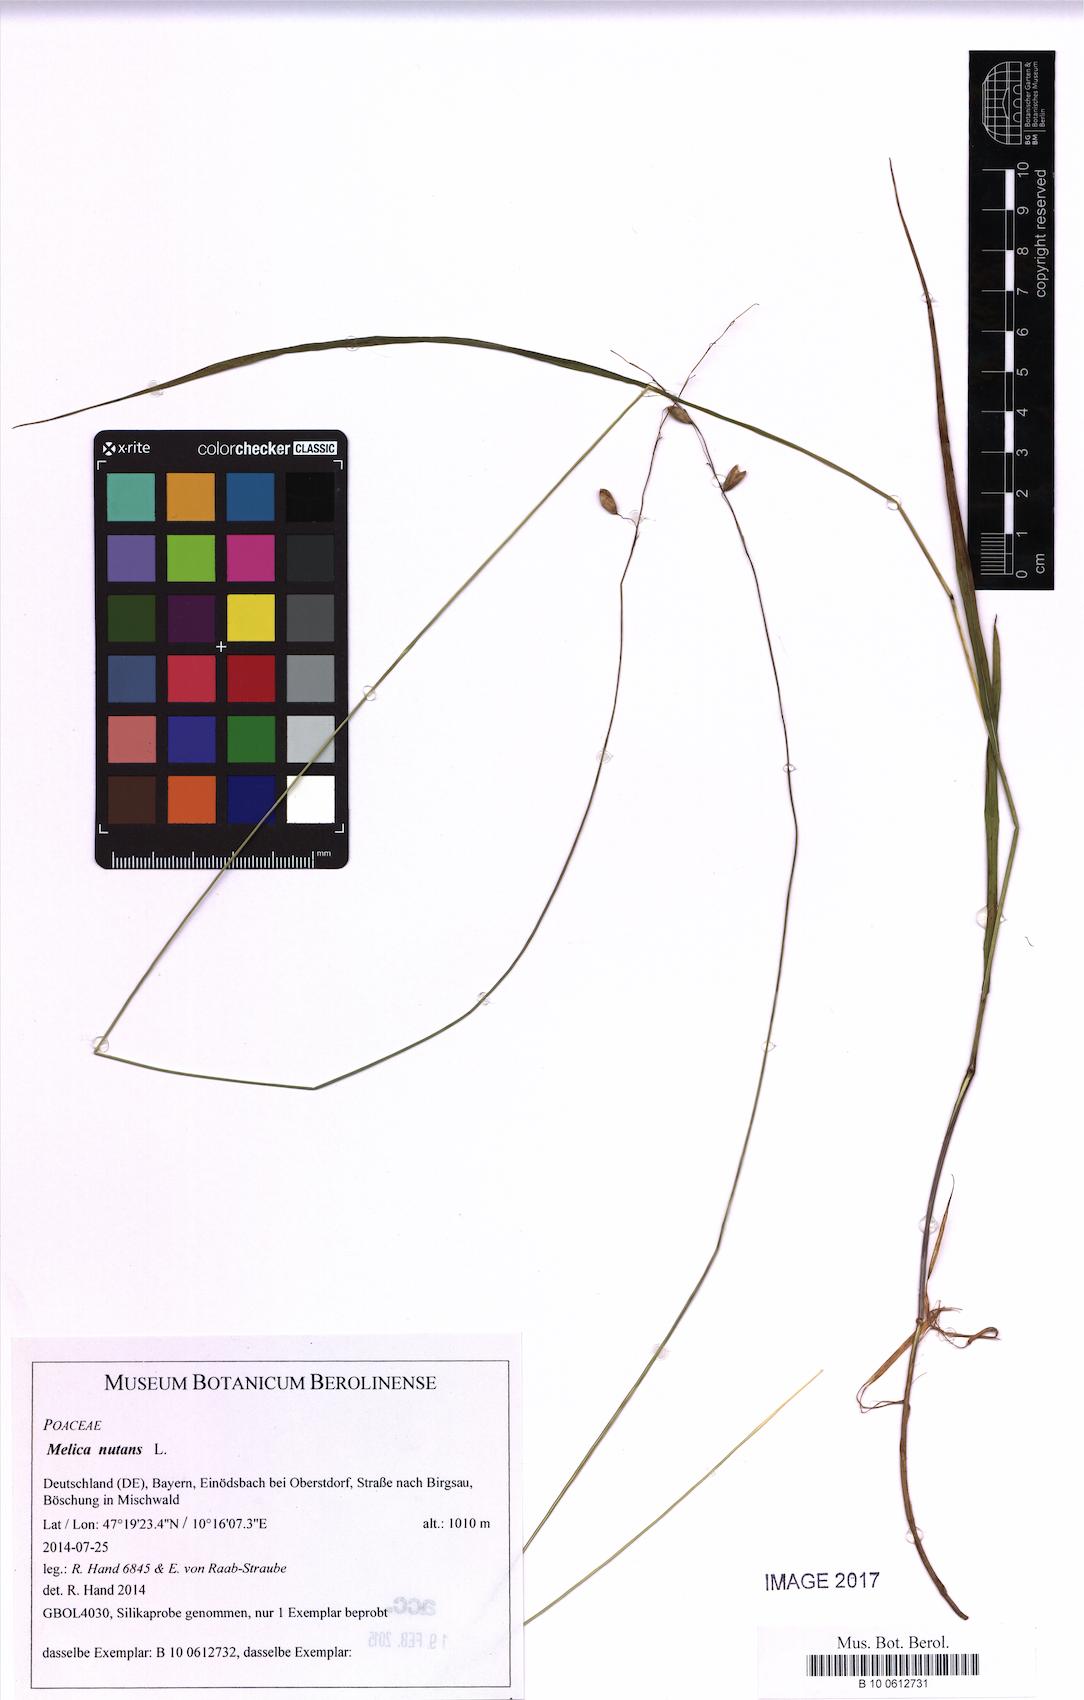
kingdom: Plantae
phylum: Tracheophyta
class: Liliopsida
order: Poales
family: Poaceae
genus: Melica
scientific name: Melica nutans
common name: Mountain melick
